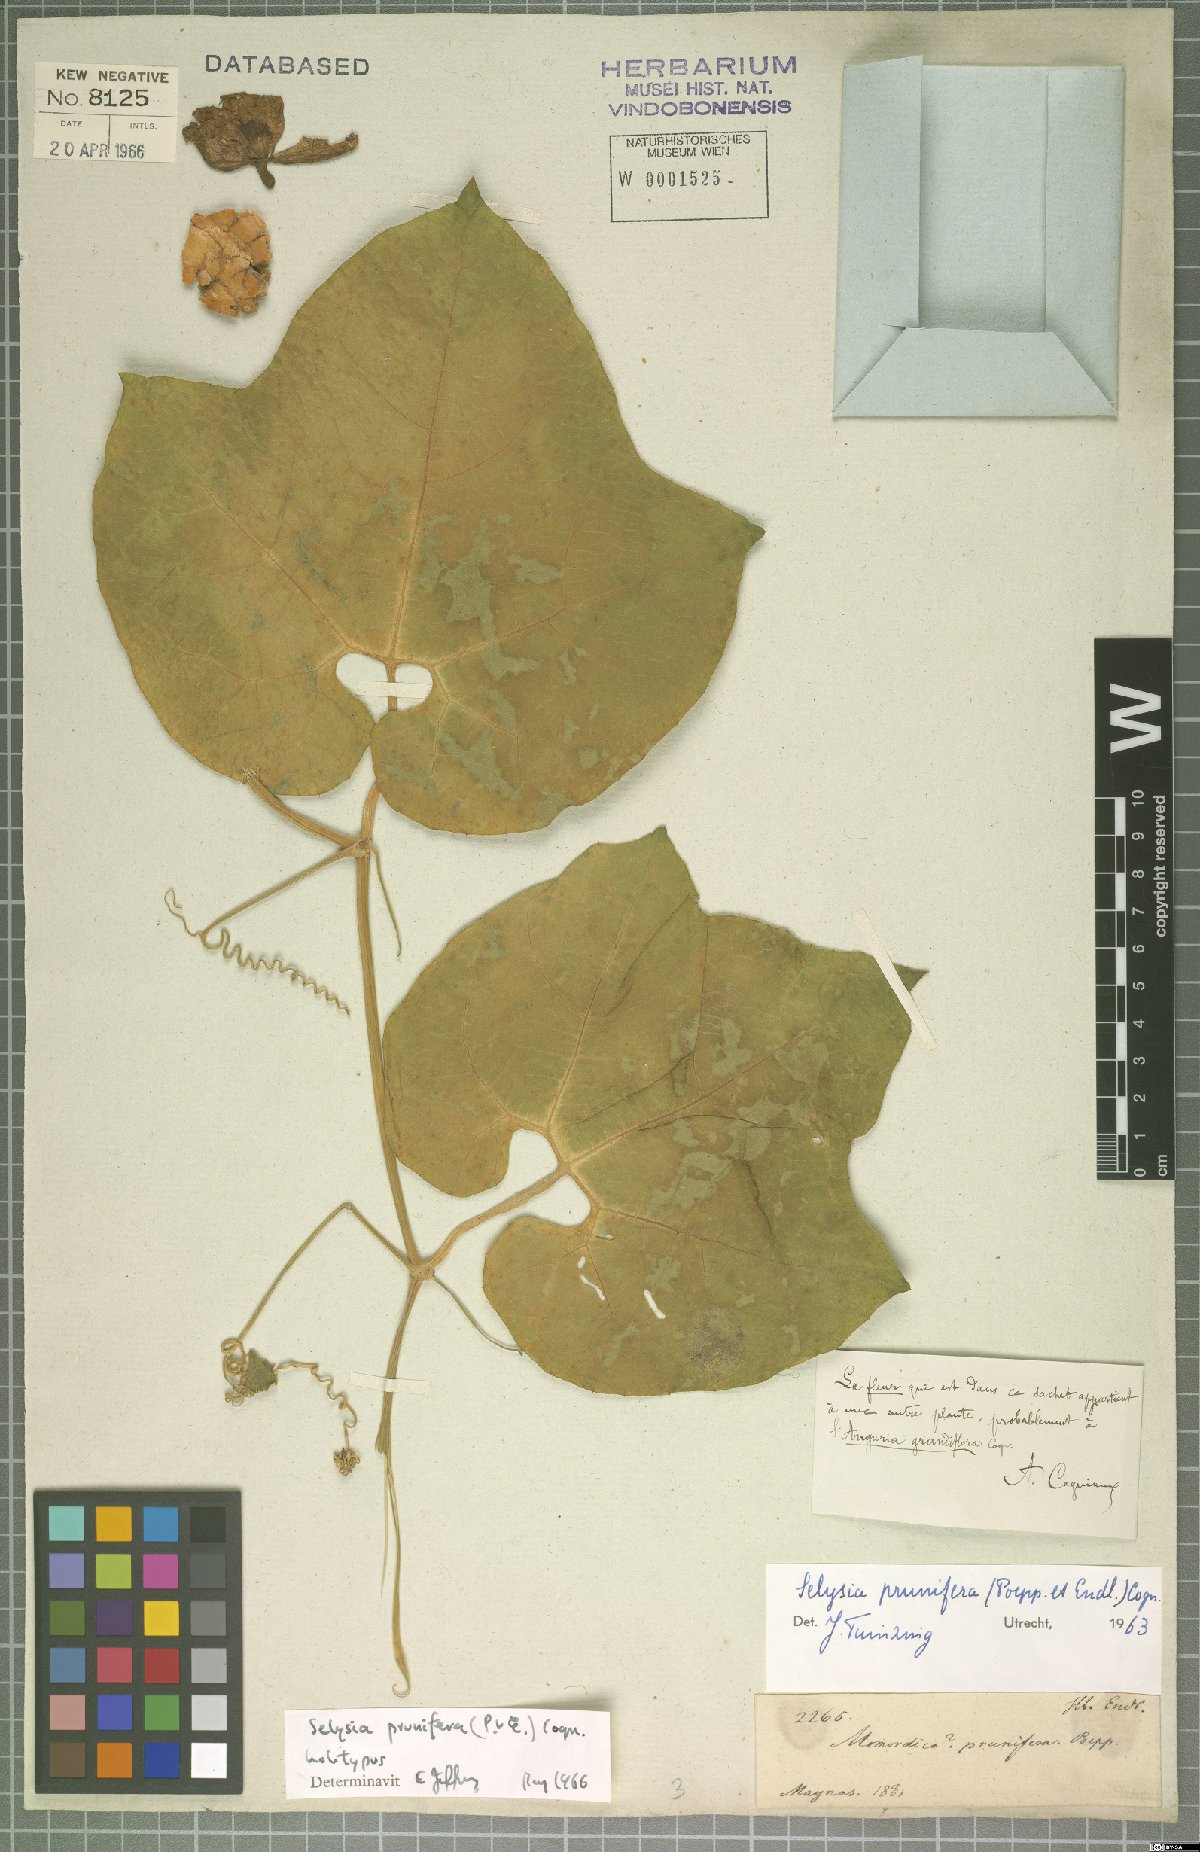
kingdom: Plantae
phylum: Tracheophyta
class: Magnoliopsida
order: Cucurbitales
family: Cucurbitaceae
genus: Cayaponia
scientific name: Cayaponia prunifera
